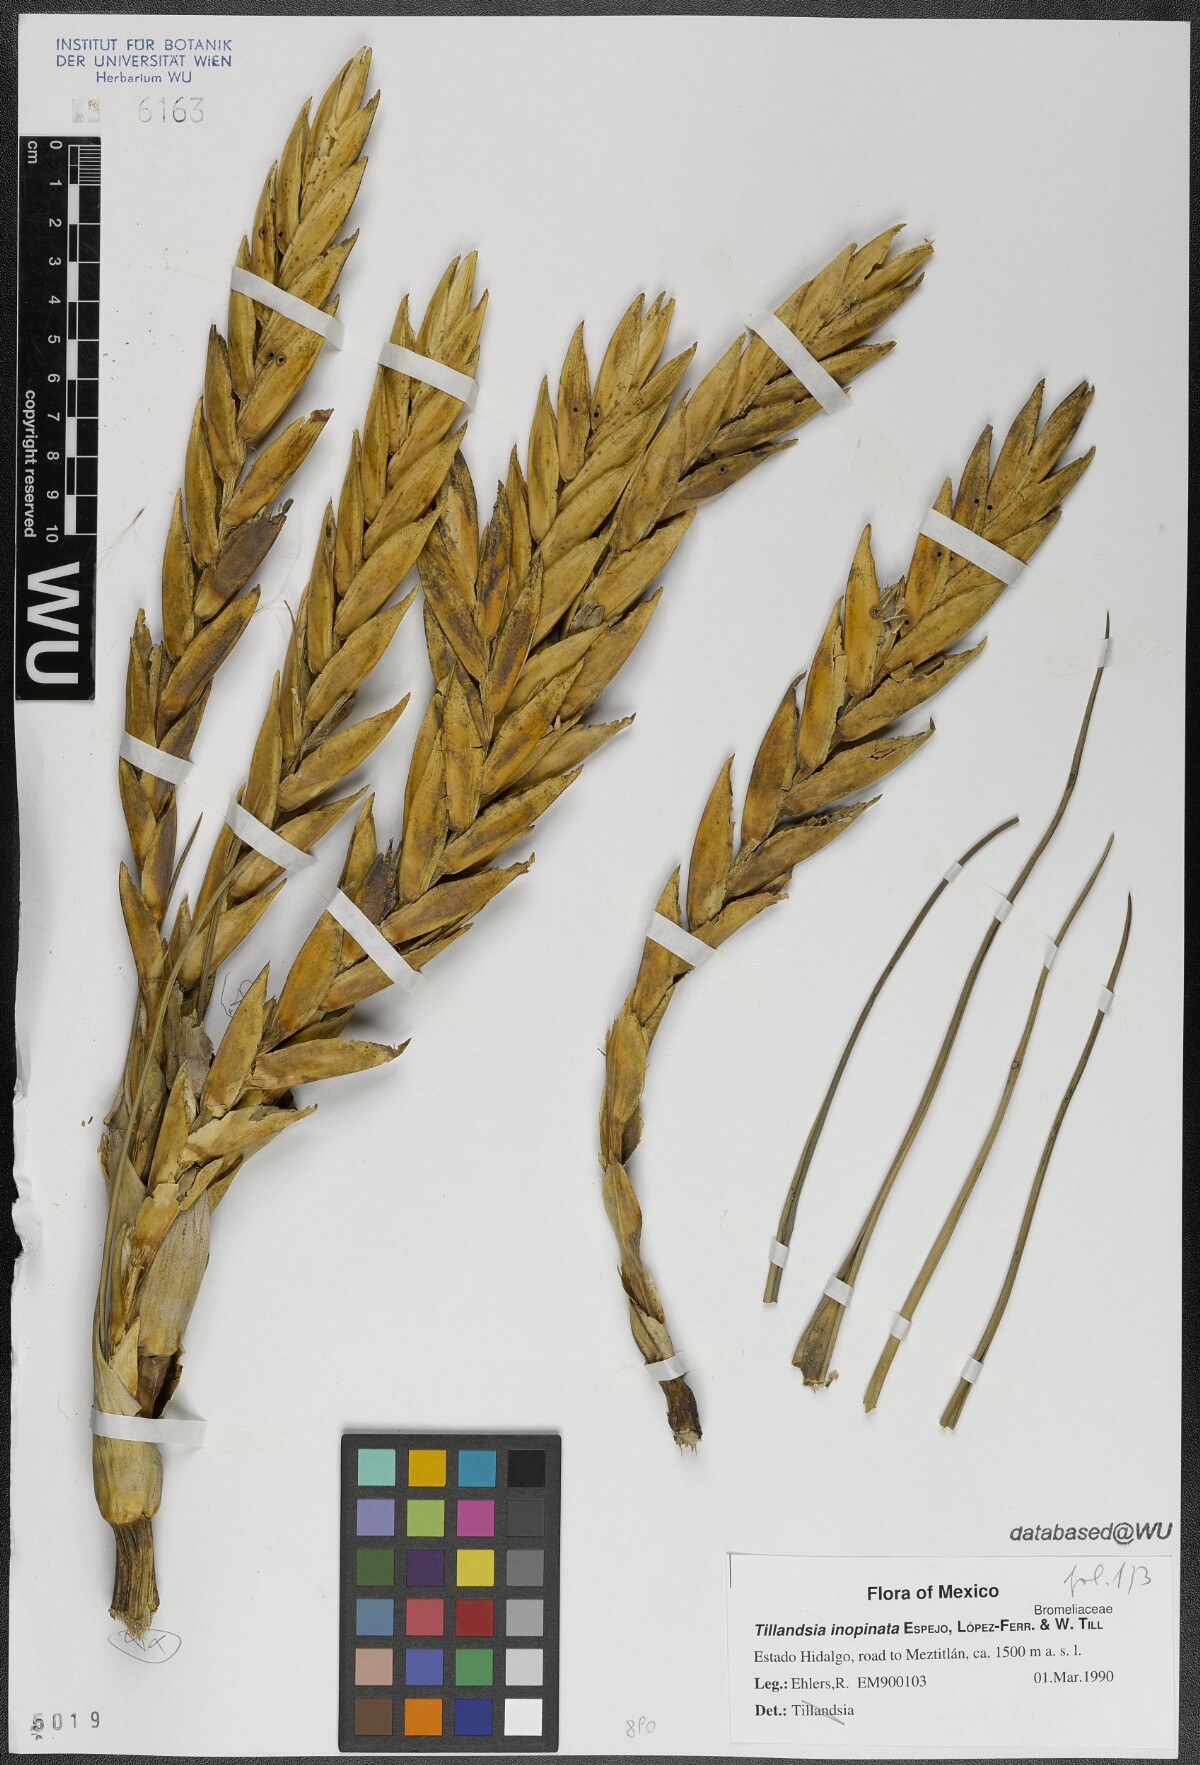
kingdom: Plantae
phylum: Tracheophyta
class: Liliopsida
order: Poales
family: Bromeliaceae
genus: Tillandsia
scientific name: Tillandsia inopinata
